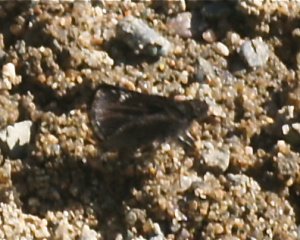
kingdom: Animalia
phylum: Arthropoda
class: Insecta
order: Lepidoptera
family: Hesperiidae
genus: Mastor
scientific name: Mastor vialis
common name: Common Roadside-Skipper
